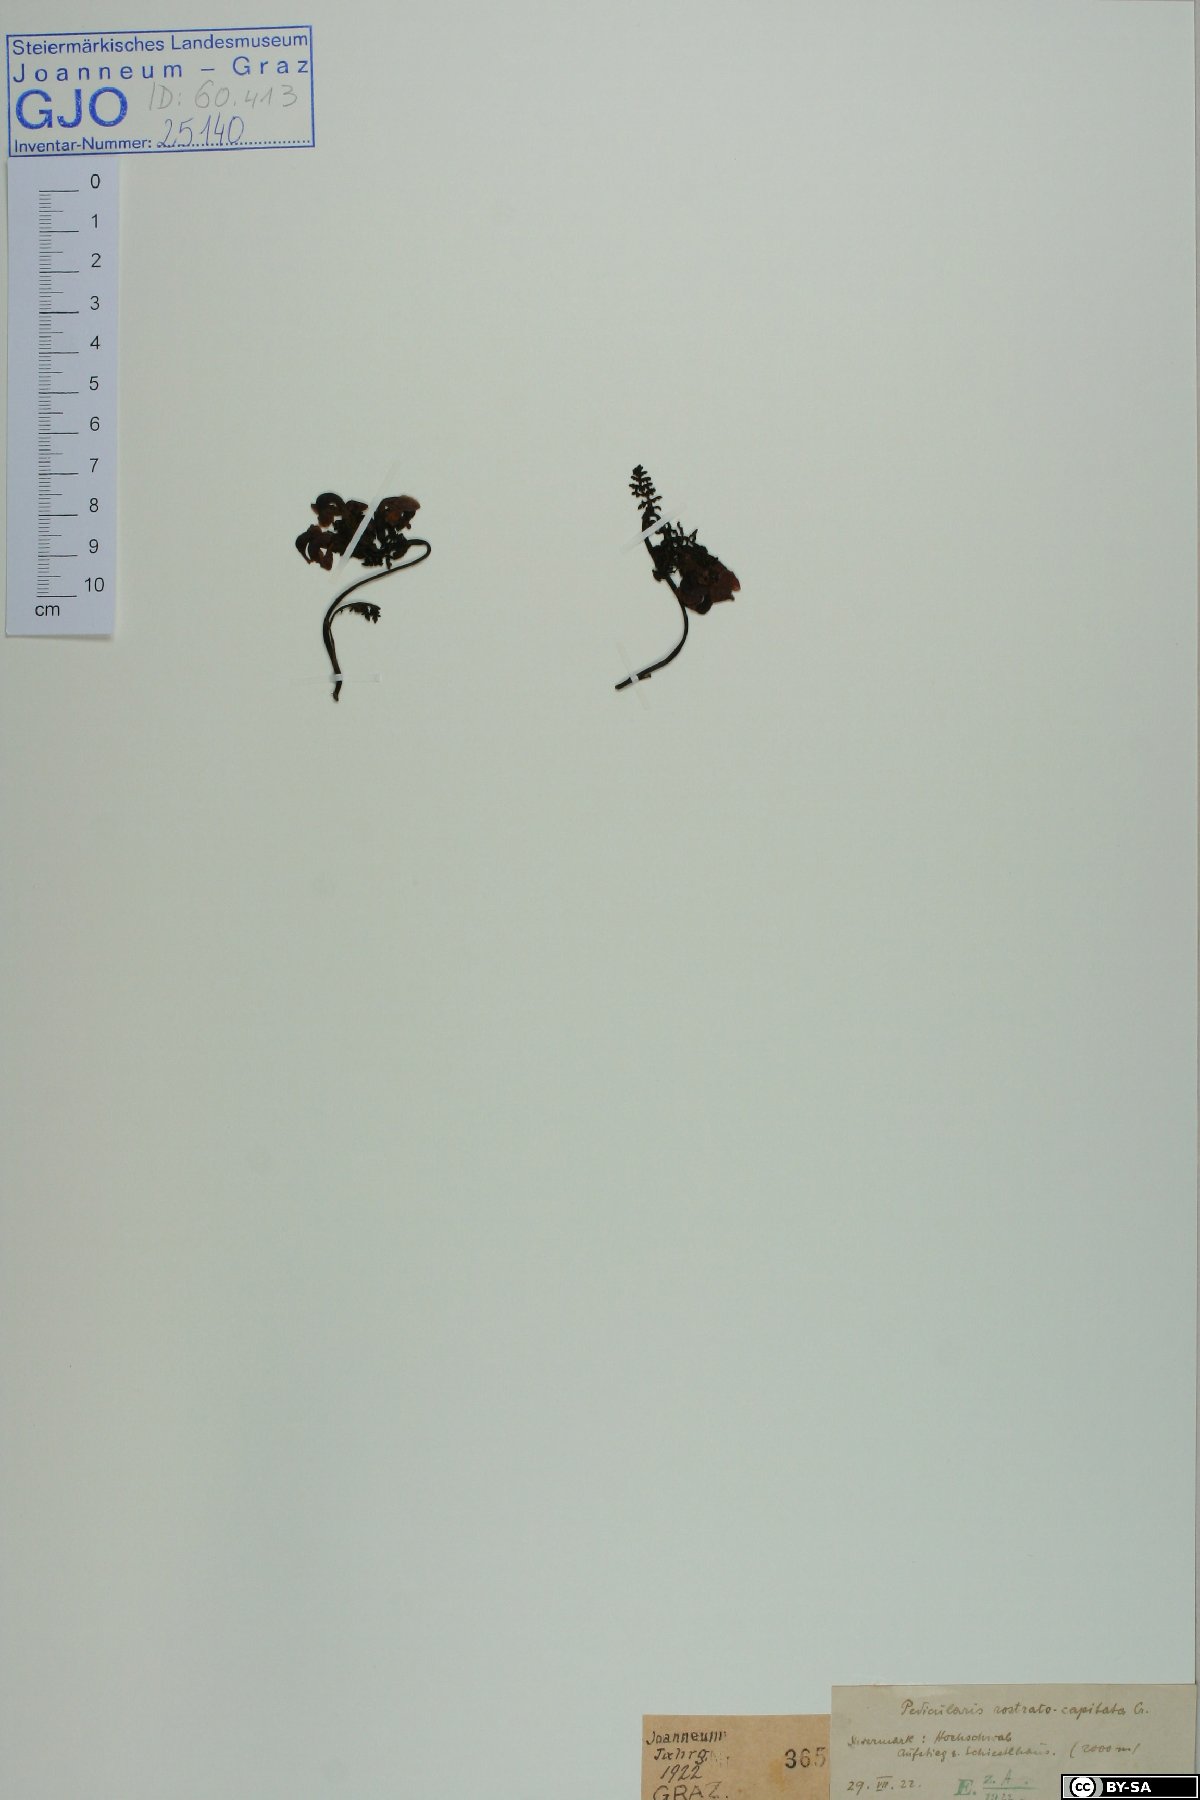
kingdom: Plantae
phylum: Tracheophyta
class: Magnoliopsida
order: Lamiales
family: Orobanchaceae
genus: Pedicularis
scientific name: Pedicularis rostratocapitata
